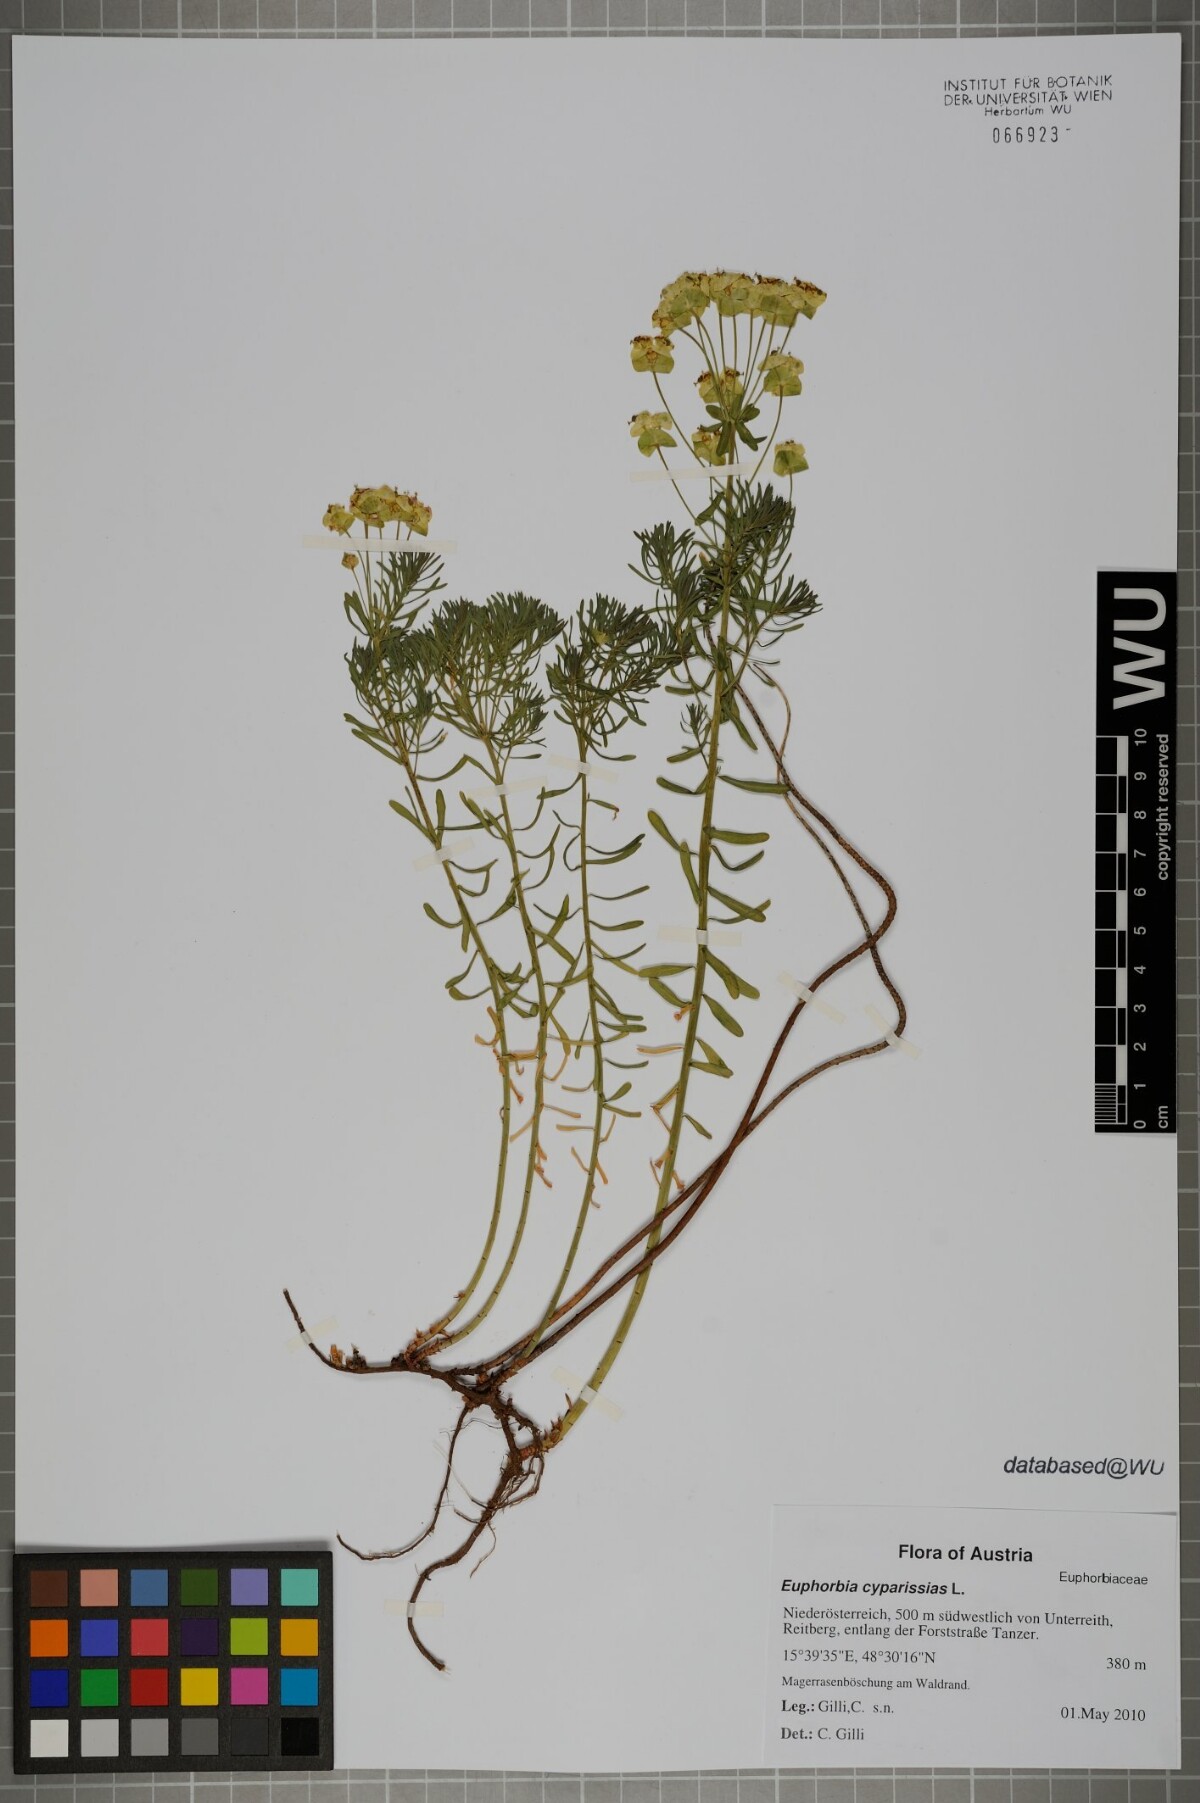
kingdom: Plantae
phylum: Tracheophyta
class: Magnoliopsida
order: Malpighiales
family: Euphorbiaceae
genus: Euphorbia
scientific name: Euphorbia cyparissias
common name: Cypress spurge
